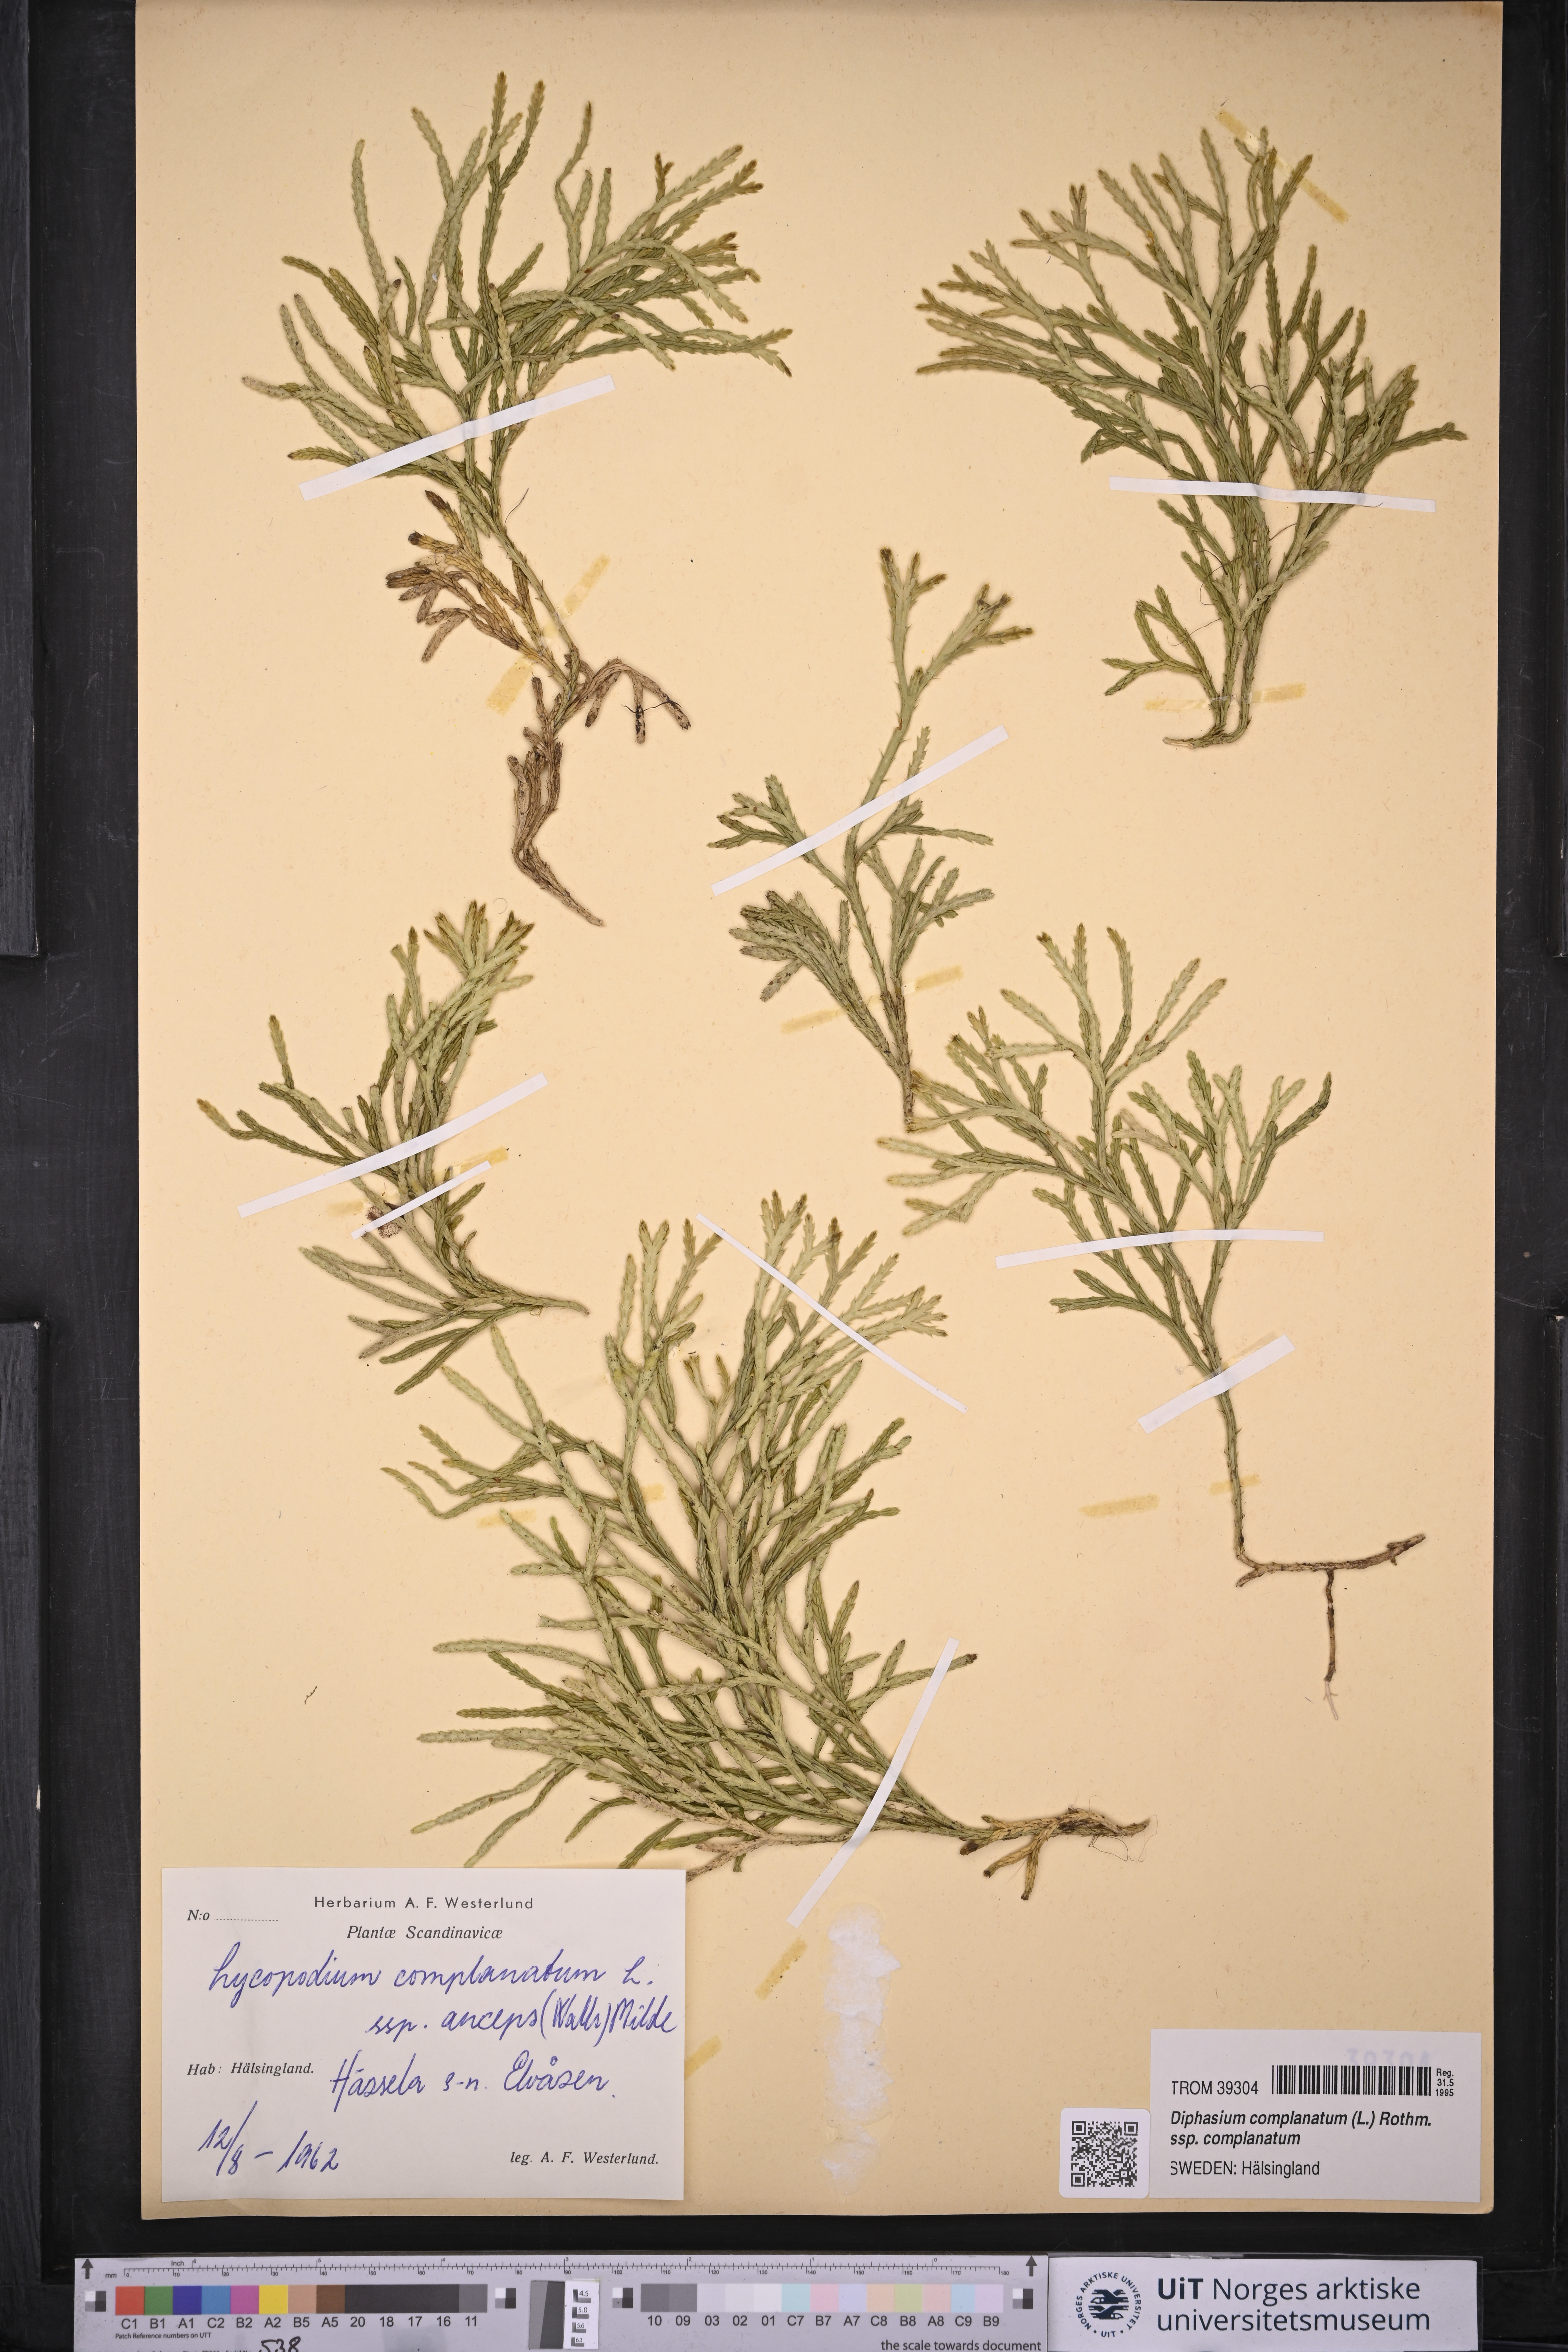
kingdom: Plantae
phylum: Tracheophyta
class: Lycopodiopsida
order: Lycopodiales
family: Lycopodiaceae
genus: Diphasiastrum
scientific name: Diphasiastrum complanatum
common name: Northern running-pine
